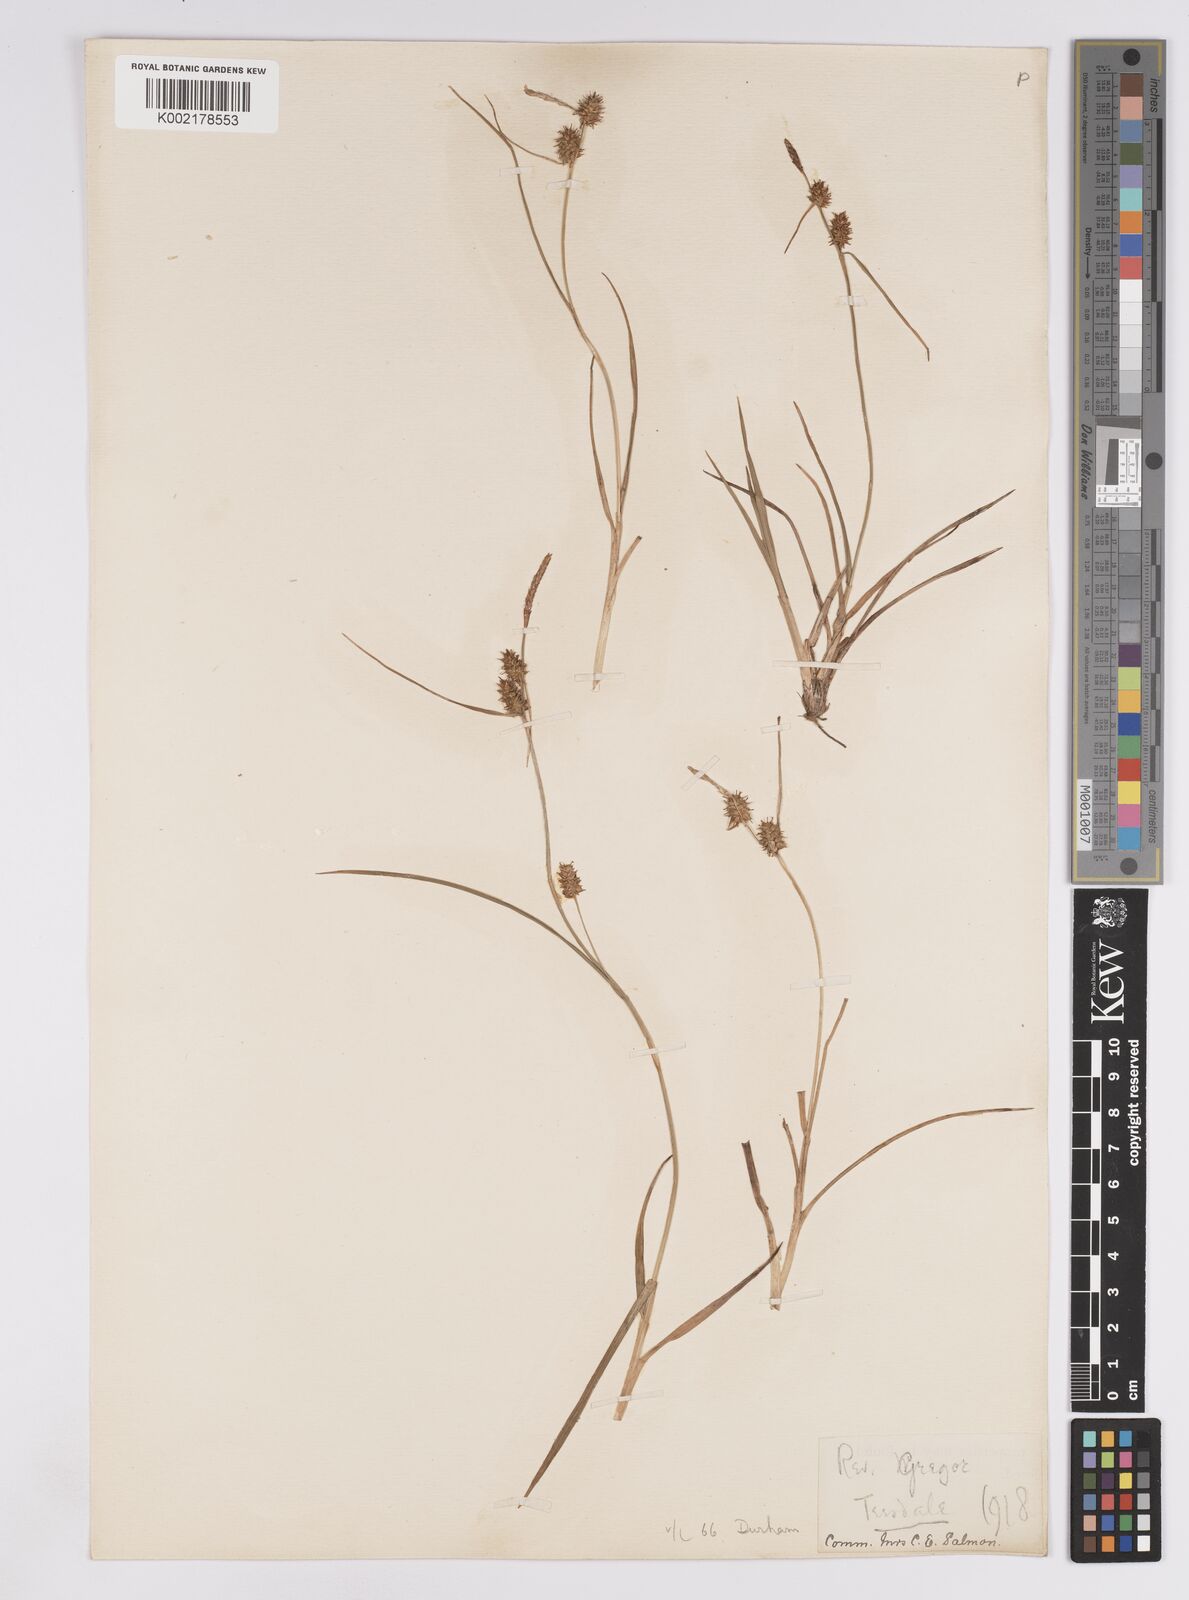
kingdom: Plantae
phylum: Tracheophyta
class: Liliopsida
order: Poales
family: Cyperaceae
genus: Carex
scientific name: Carex lepidocarpa
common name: Long-stalked yellow-sedge
